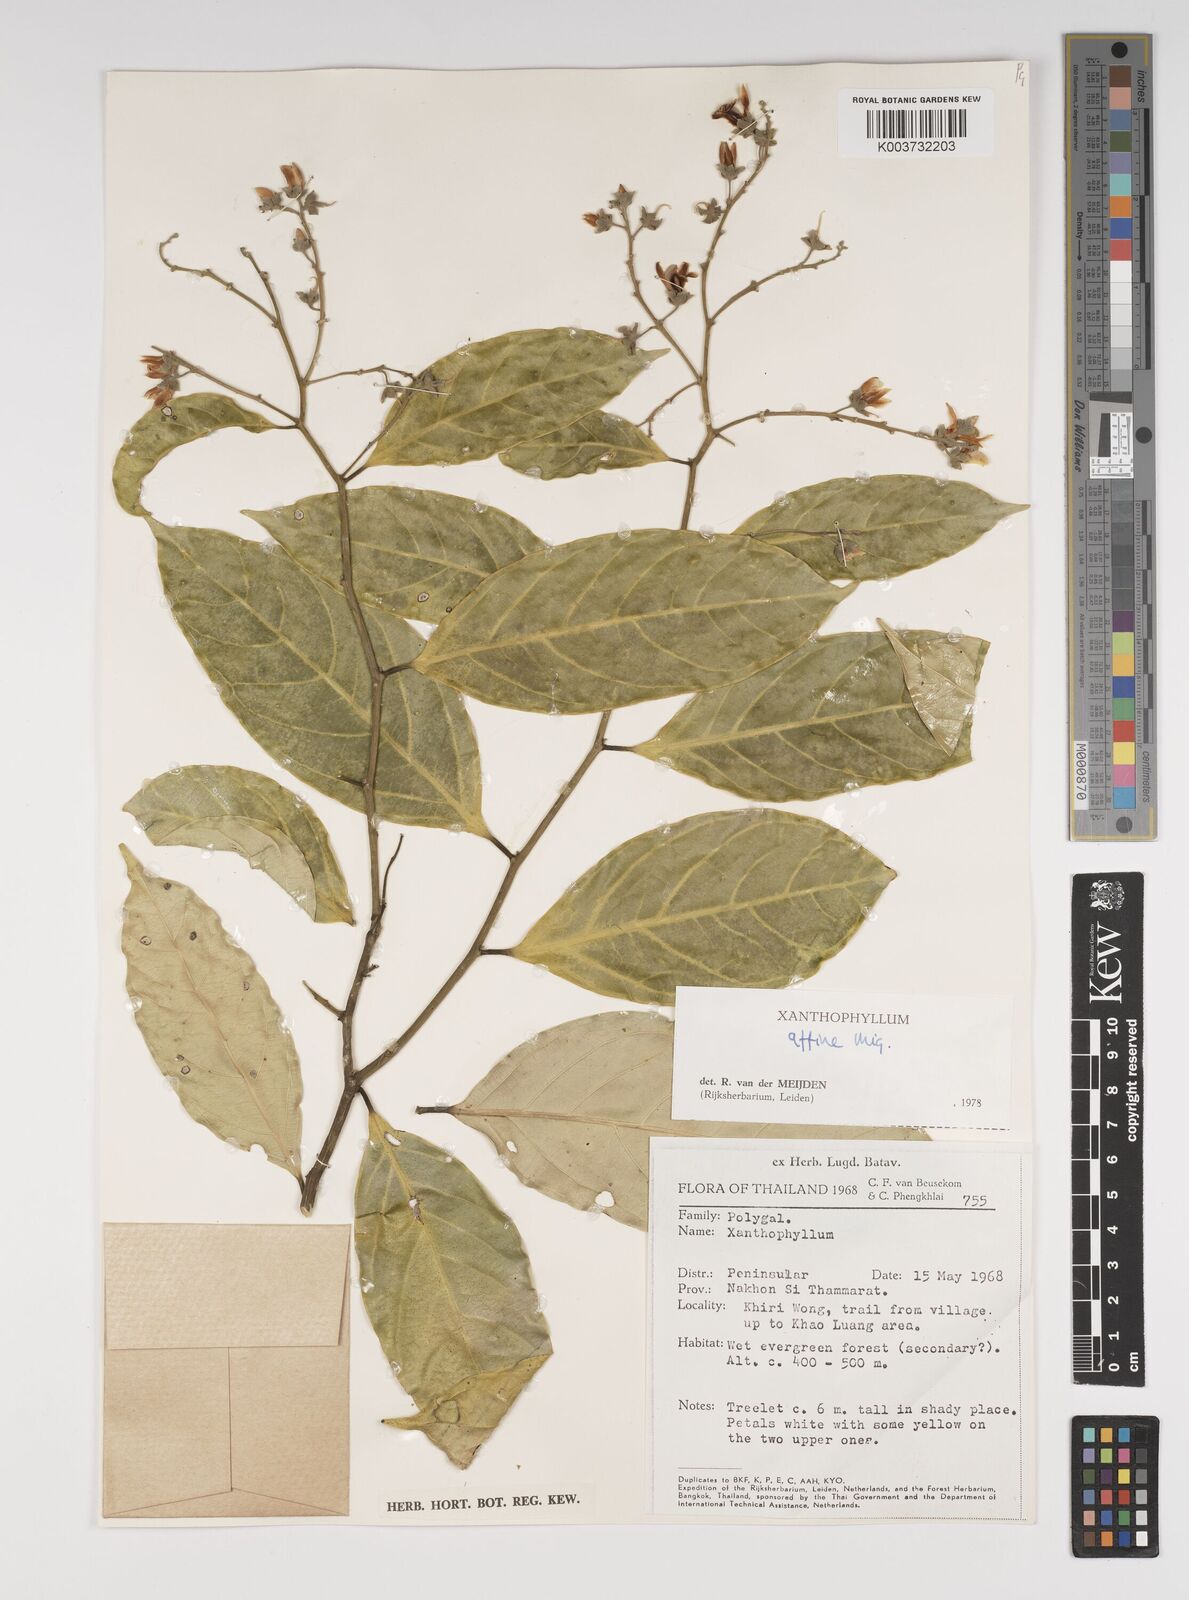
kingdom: Plantae
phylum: Tracheophyta
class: Magnoliopsida
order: Fabales
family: Polygalaceae
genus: Xanthophyllum
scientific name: Xanthophyllum flavescens
